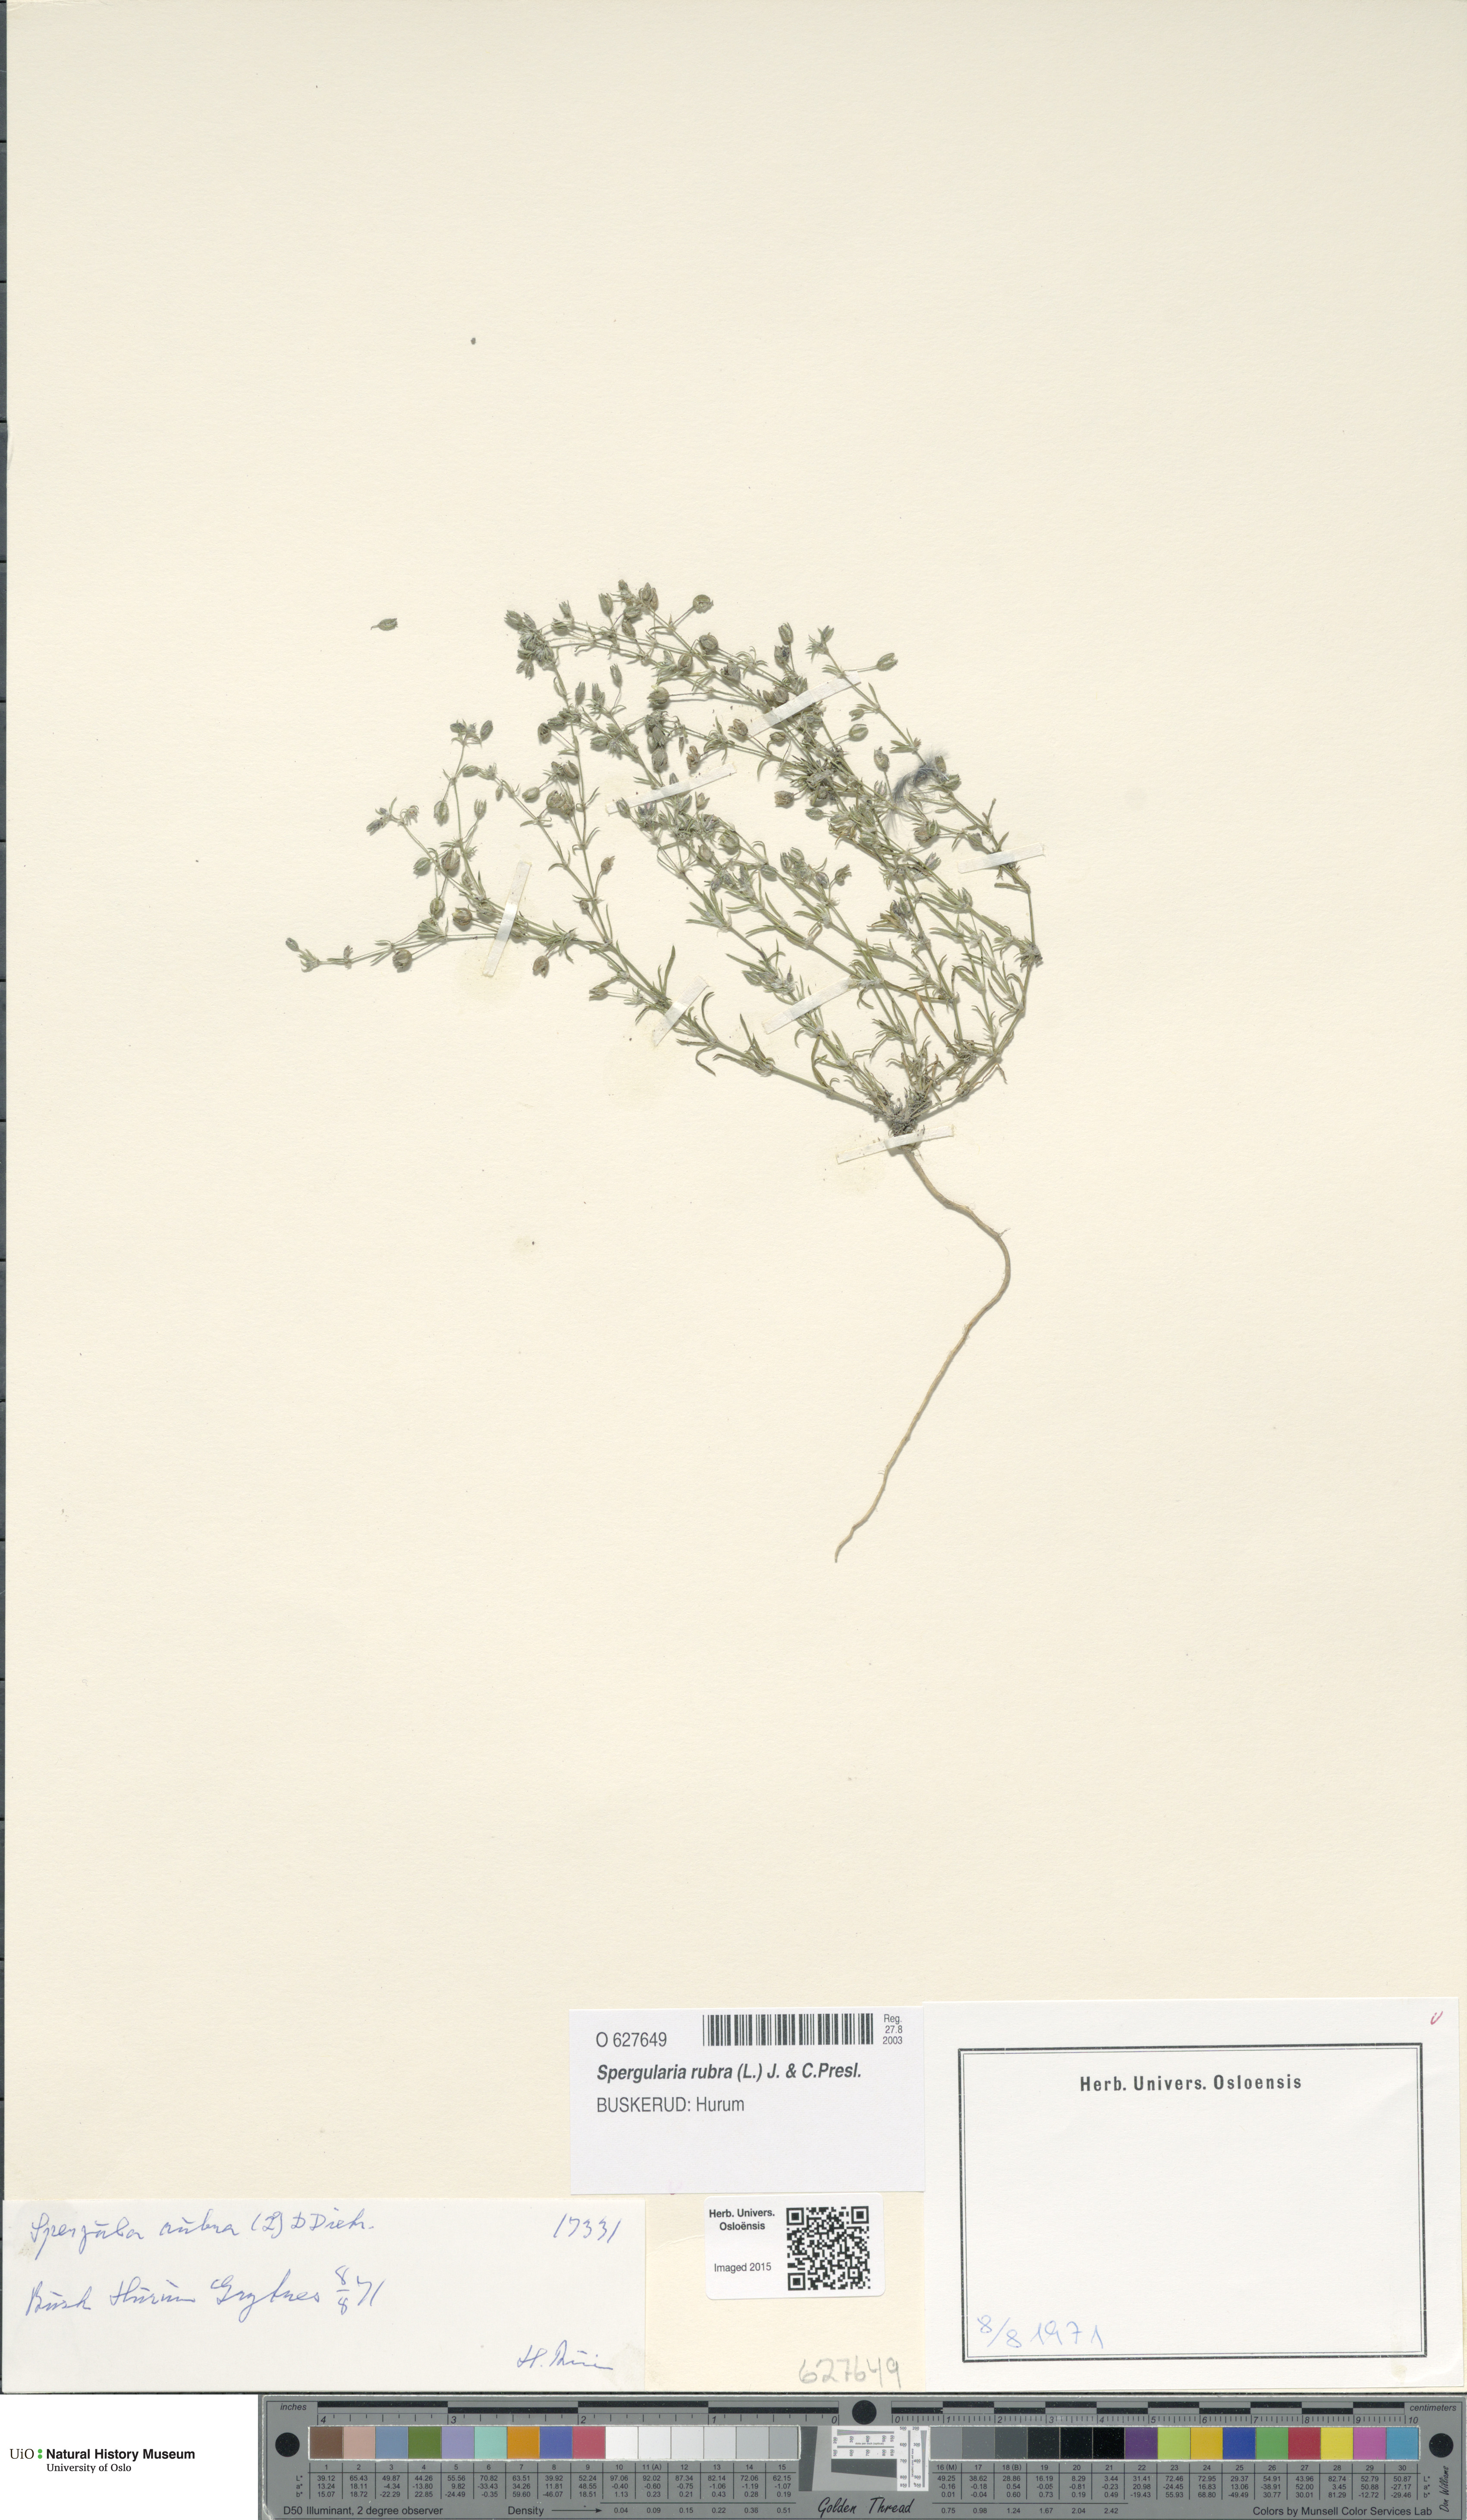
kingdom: Plantae
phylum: Tracheophyta
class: Magnoliopsida
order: Caryophyllales
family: Caryophyllaceae
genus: Spergularia
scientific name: Spergularia rubra
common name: Red sand-spurrey
